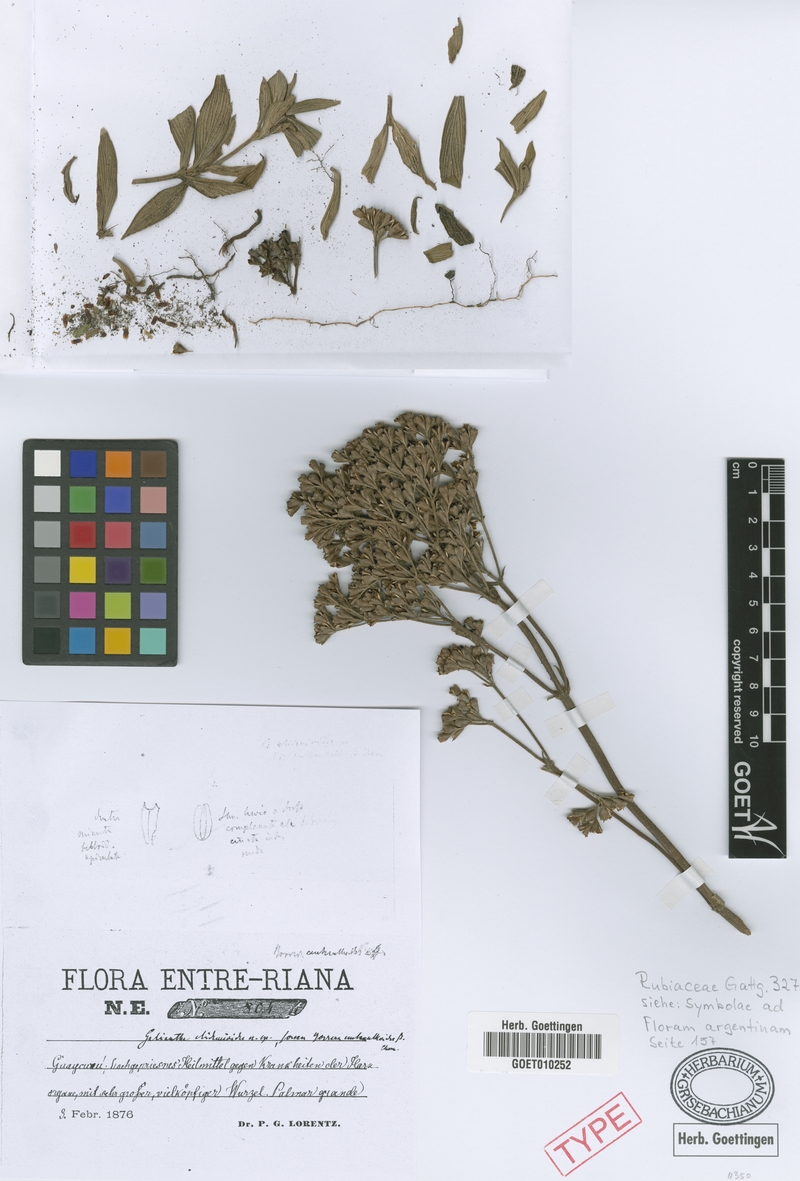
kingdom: Plantae
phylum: Tracheophyta
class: Magnoliopsida
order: Gentianales
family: Rubiaceae
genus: Galianthe
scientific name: Galianthe centranthoides
